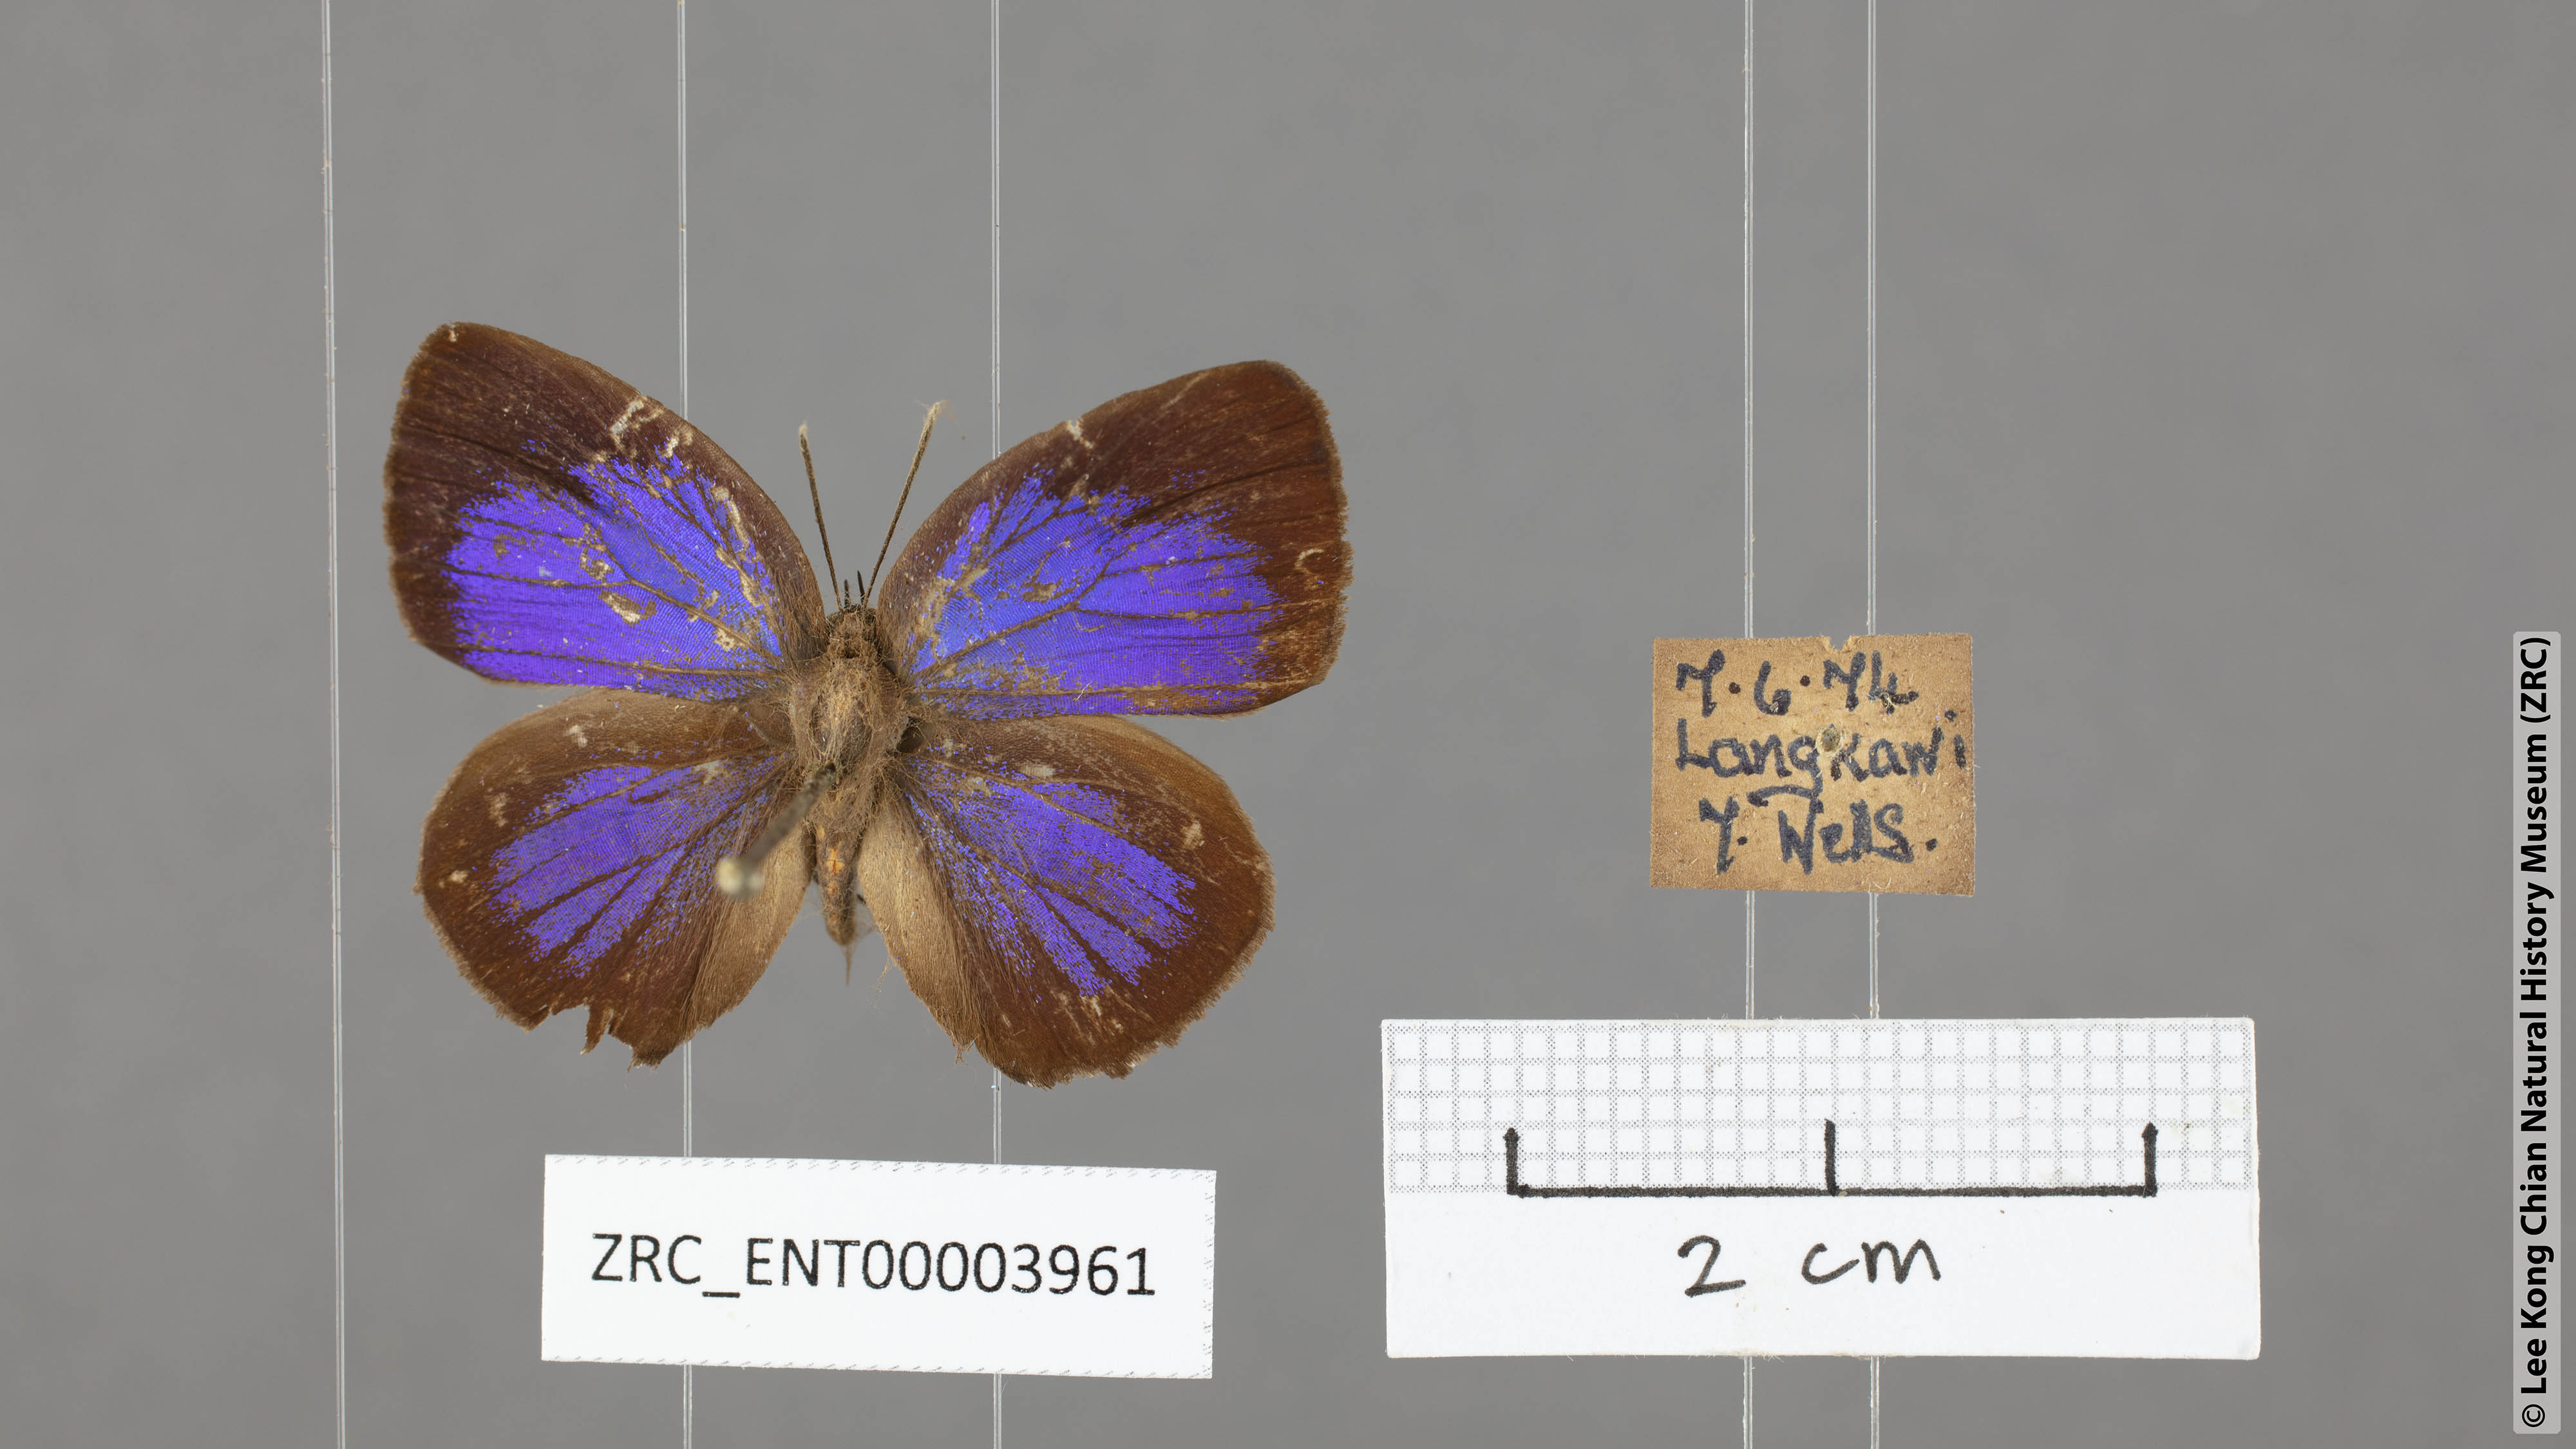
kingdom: Animalia
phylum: Arthropoda
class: Insecta
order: Lepidoptera
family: Lycaenidae
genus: Arhopala
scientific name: Arhopala hypomuta
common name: Violet oakblue
